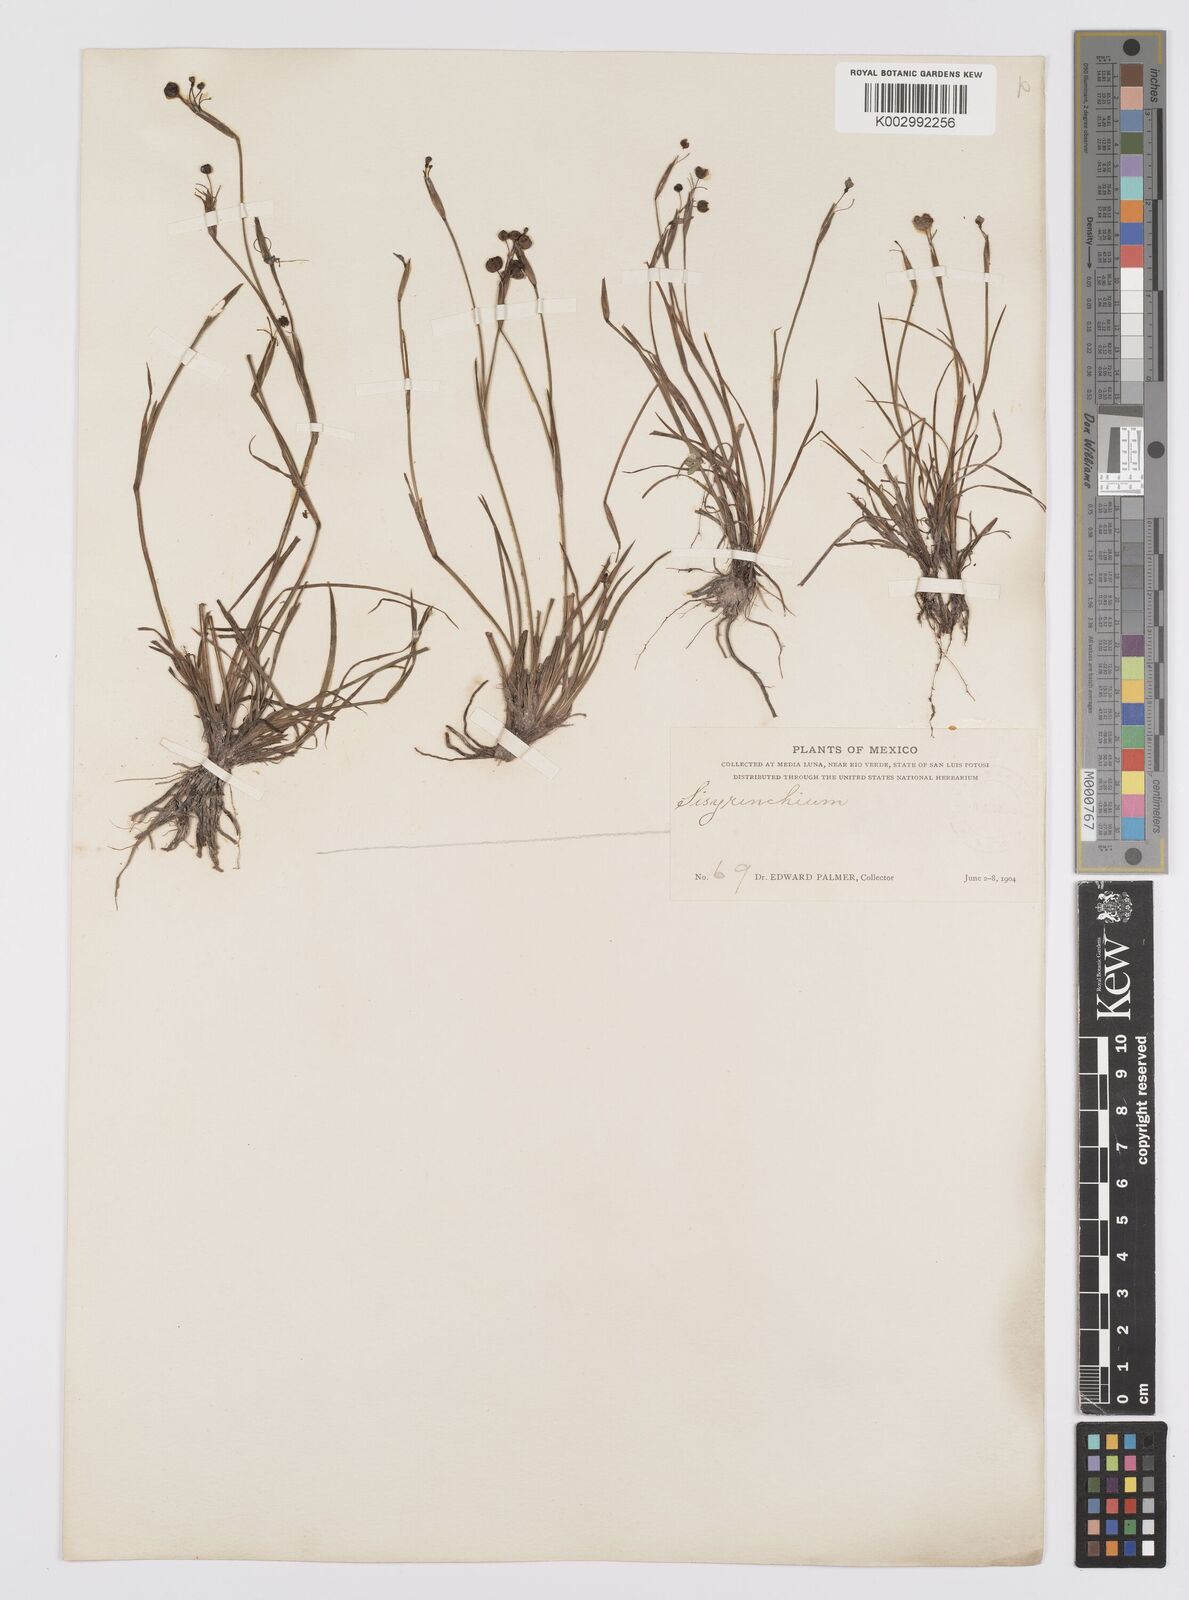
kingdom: Plantae
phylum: Tracheophyta
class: Liliopsida
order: Asparagales
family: Iridaceae
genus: Sisyrinchium
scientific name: Sisyrinchium
